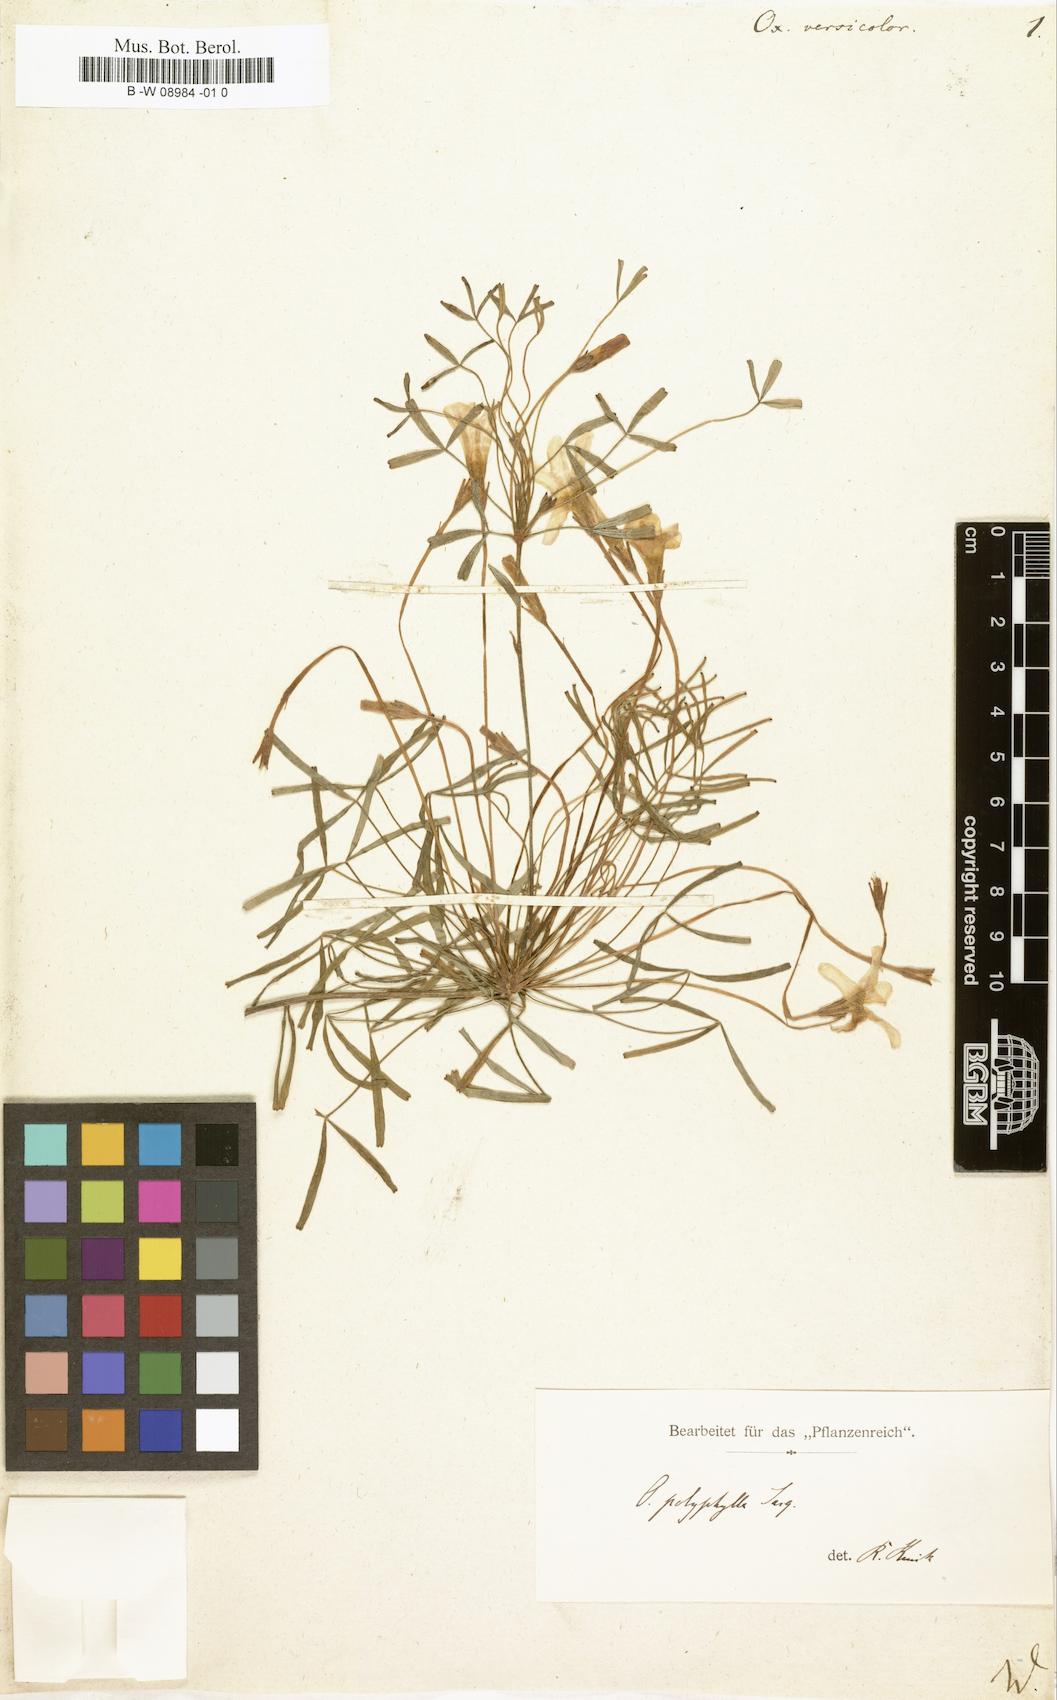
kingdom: Plantae
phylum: Tracheophyta
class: Magnoliopsida
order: Oxalidales
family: Oxalidaceae
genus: Oxalis
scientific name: Oxalis versicolor
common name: Peppermint rock oxalis
